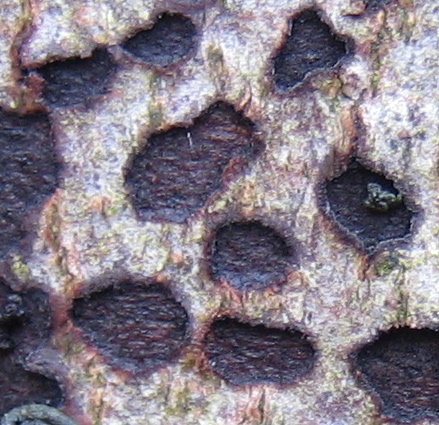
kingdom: Fungi
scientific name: Fungi
